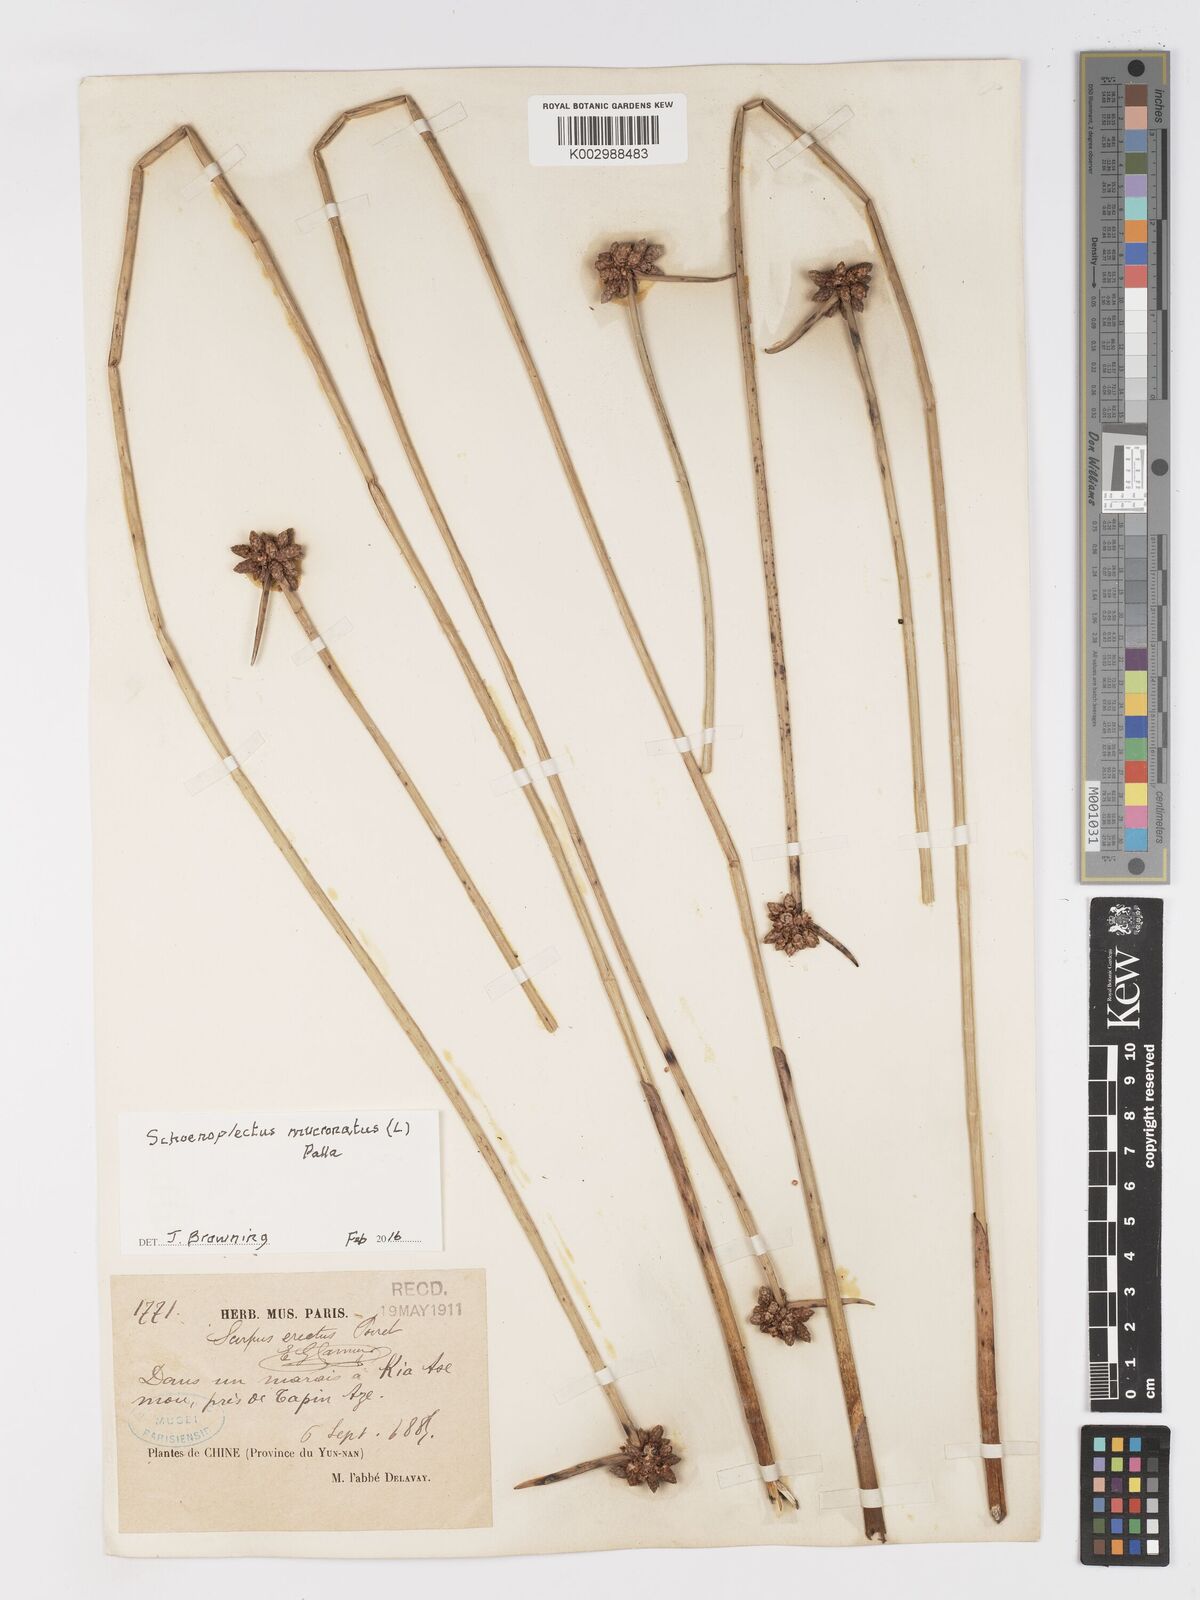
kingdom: Plantae
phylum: Tracheophyta
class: Liliopsida
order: Poales
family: Cyperaceae
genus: Schoenoplectiella
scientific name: Schoenoplectiella mucronata
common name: Bog bulrush
